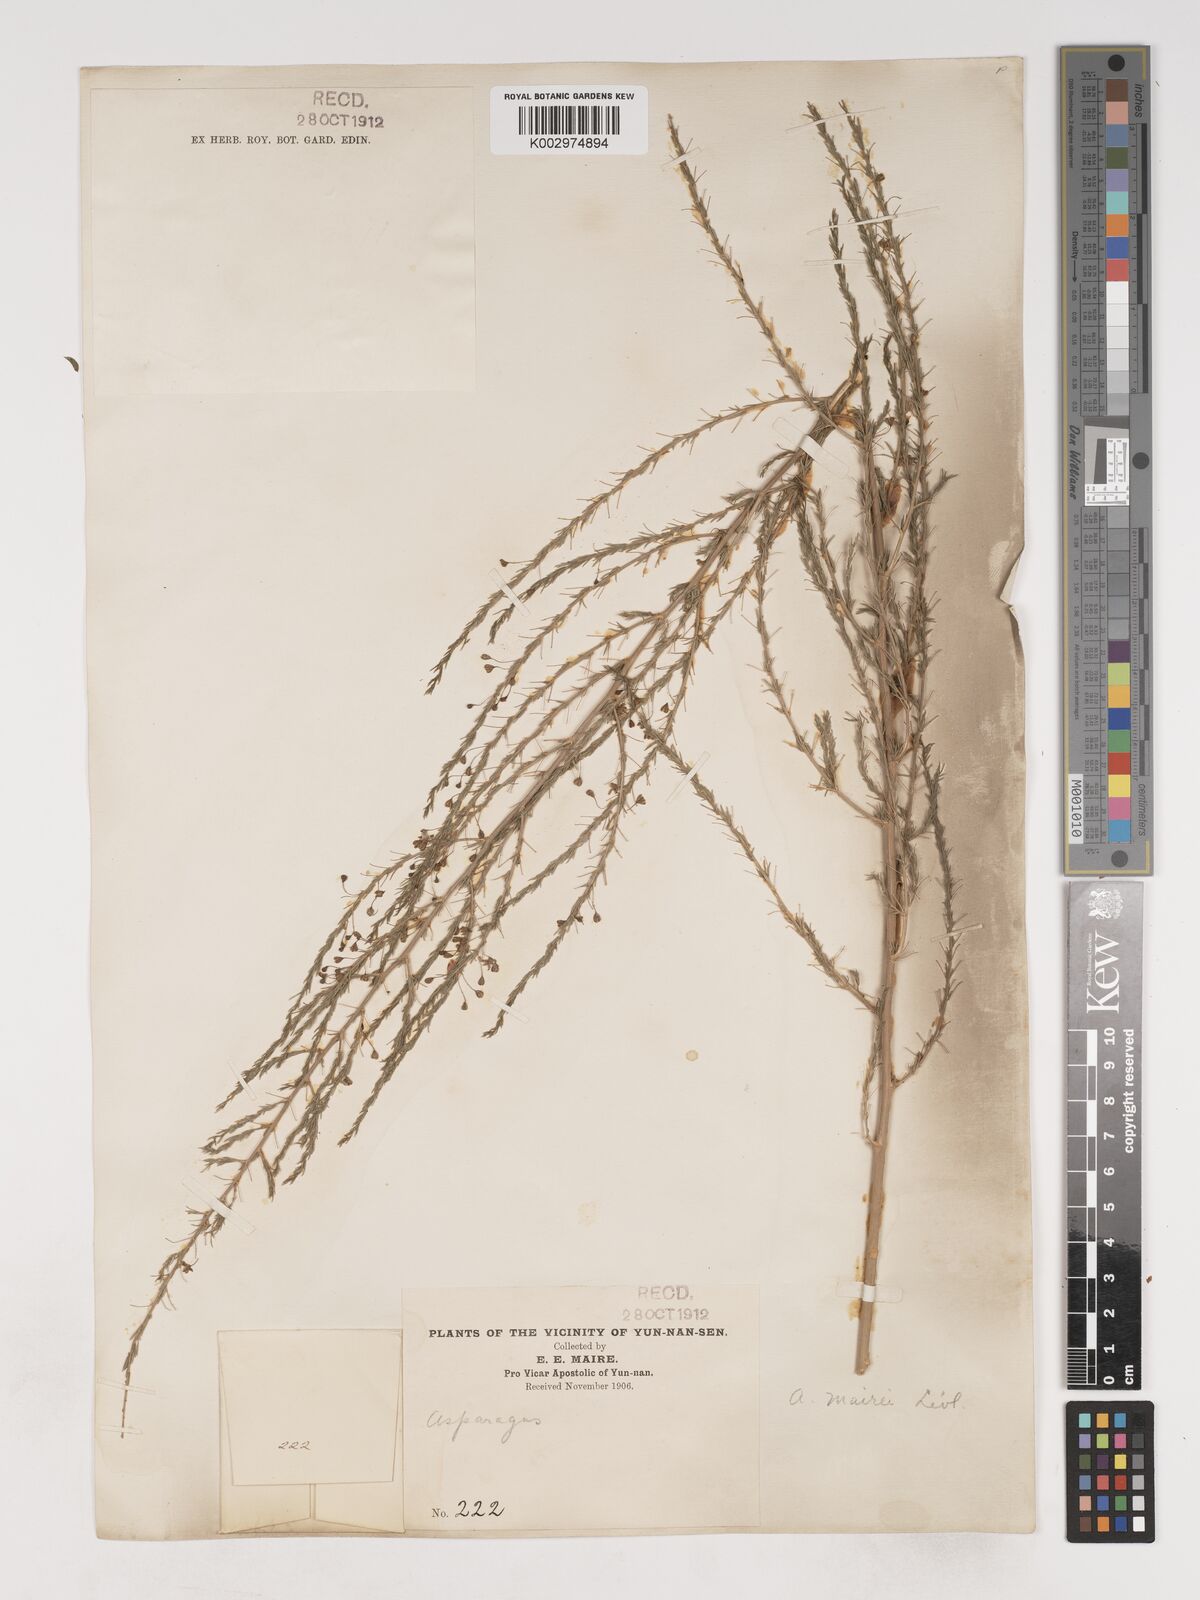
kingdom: Plantae
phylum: Tracheophyta
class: Liliopsida
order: Asparagales
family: Asparagaceae
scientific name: Asparagaceae
